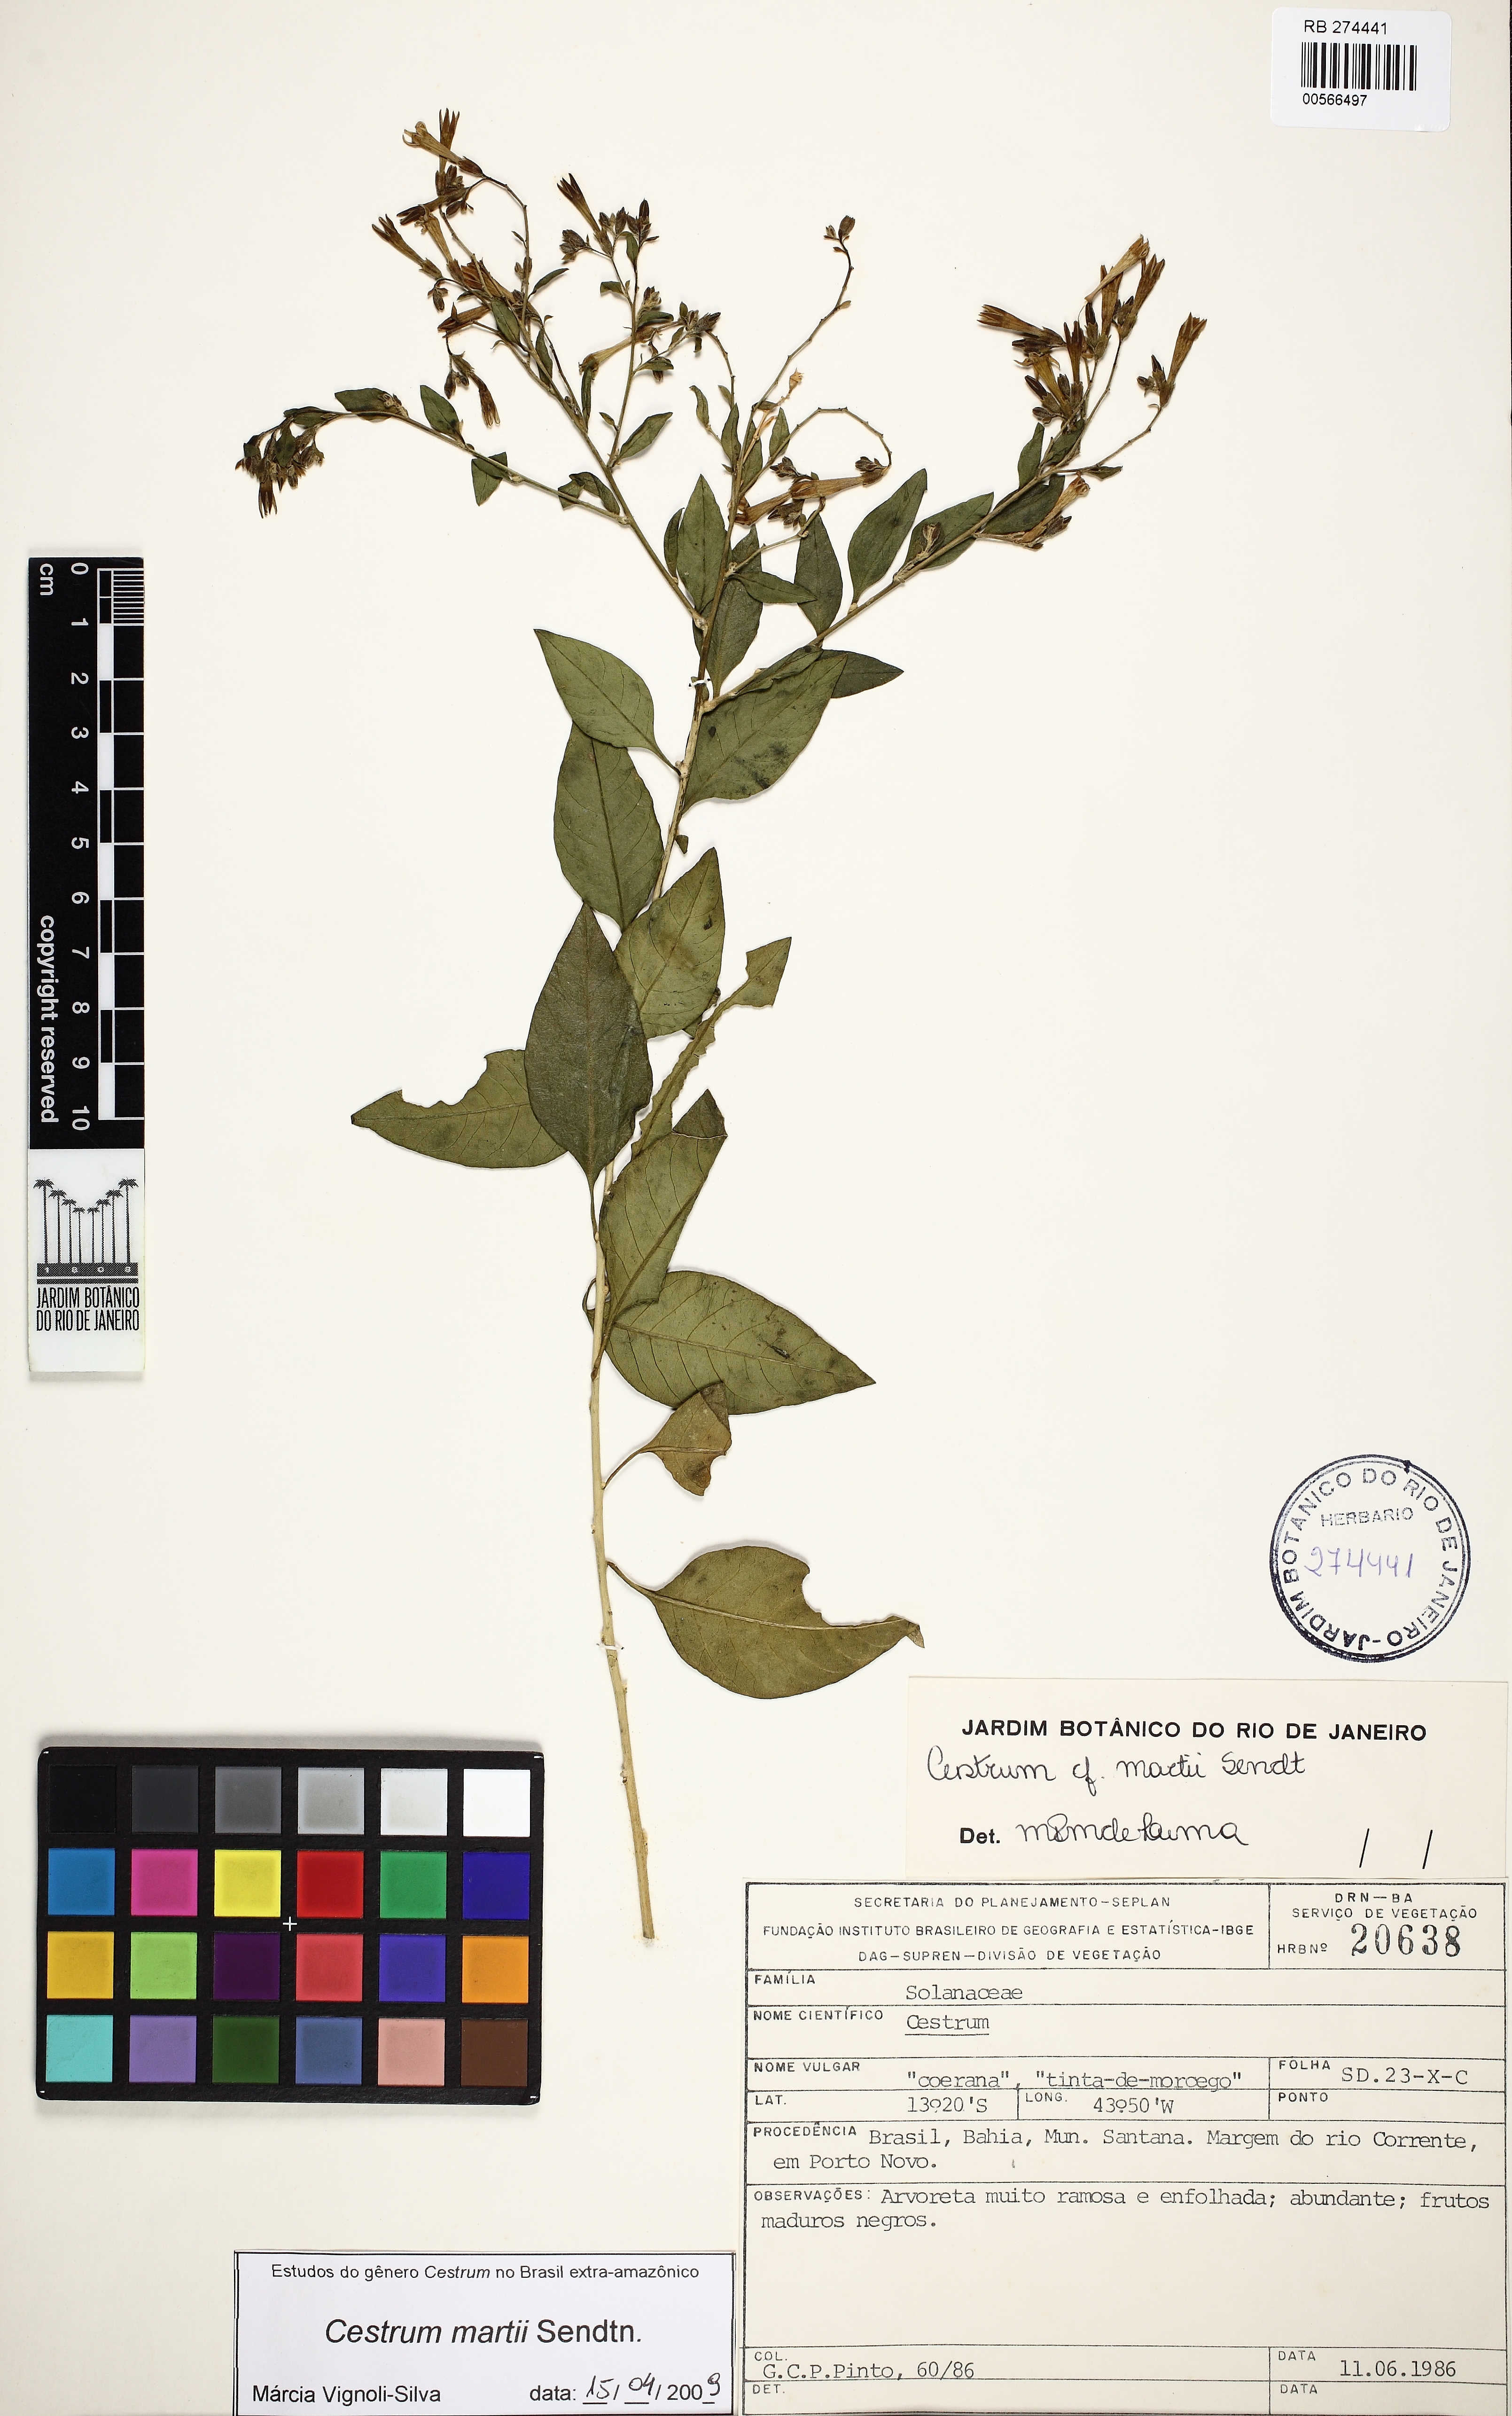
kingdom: Plantae
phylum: Tracheophyta
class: Magnoliopsida
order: Solanales
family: Solanaceae
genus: Cestrum
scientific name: Cestrum martii
